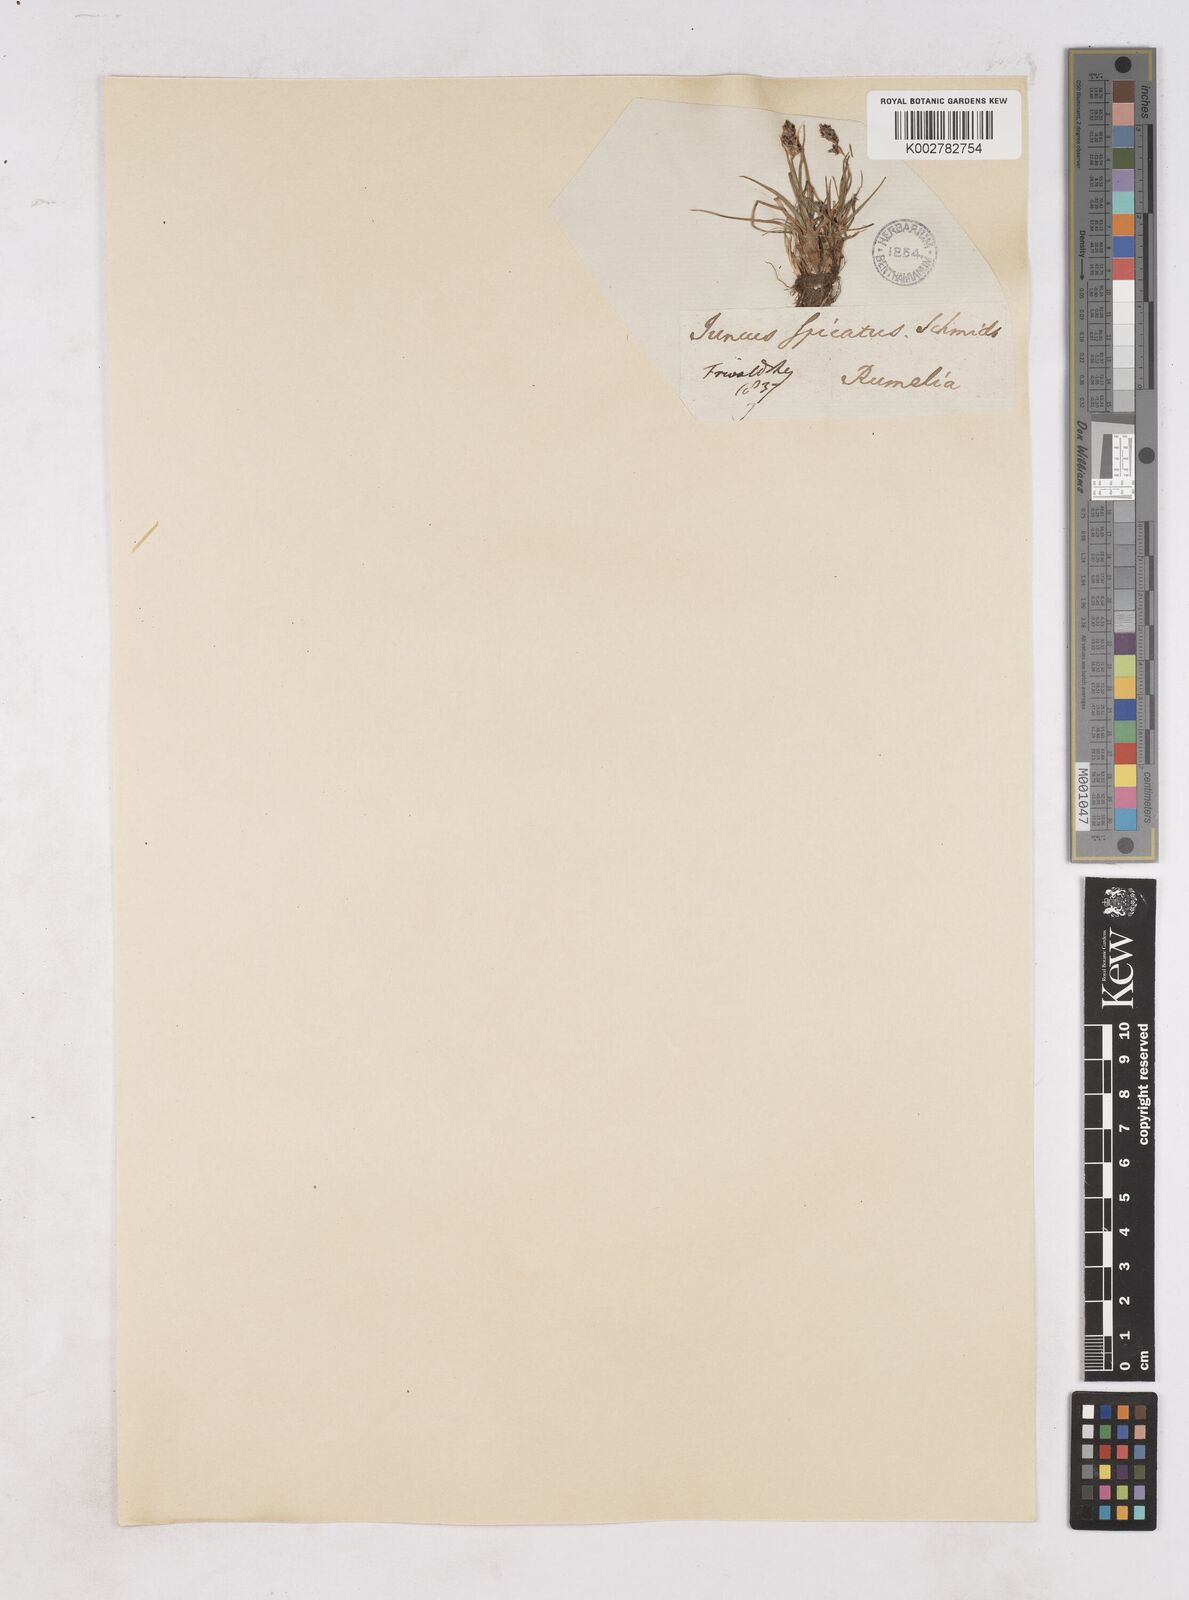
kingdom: Plantae
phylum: Tracheophyta
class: Liliopsida
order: Poales
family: Juncaceae
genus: Luzula
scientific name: Luzula spicata
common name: Spiked wood-rush
